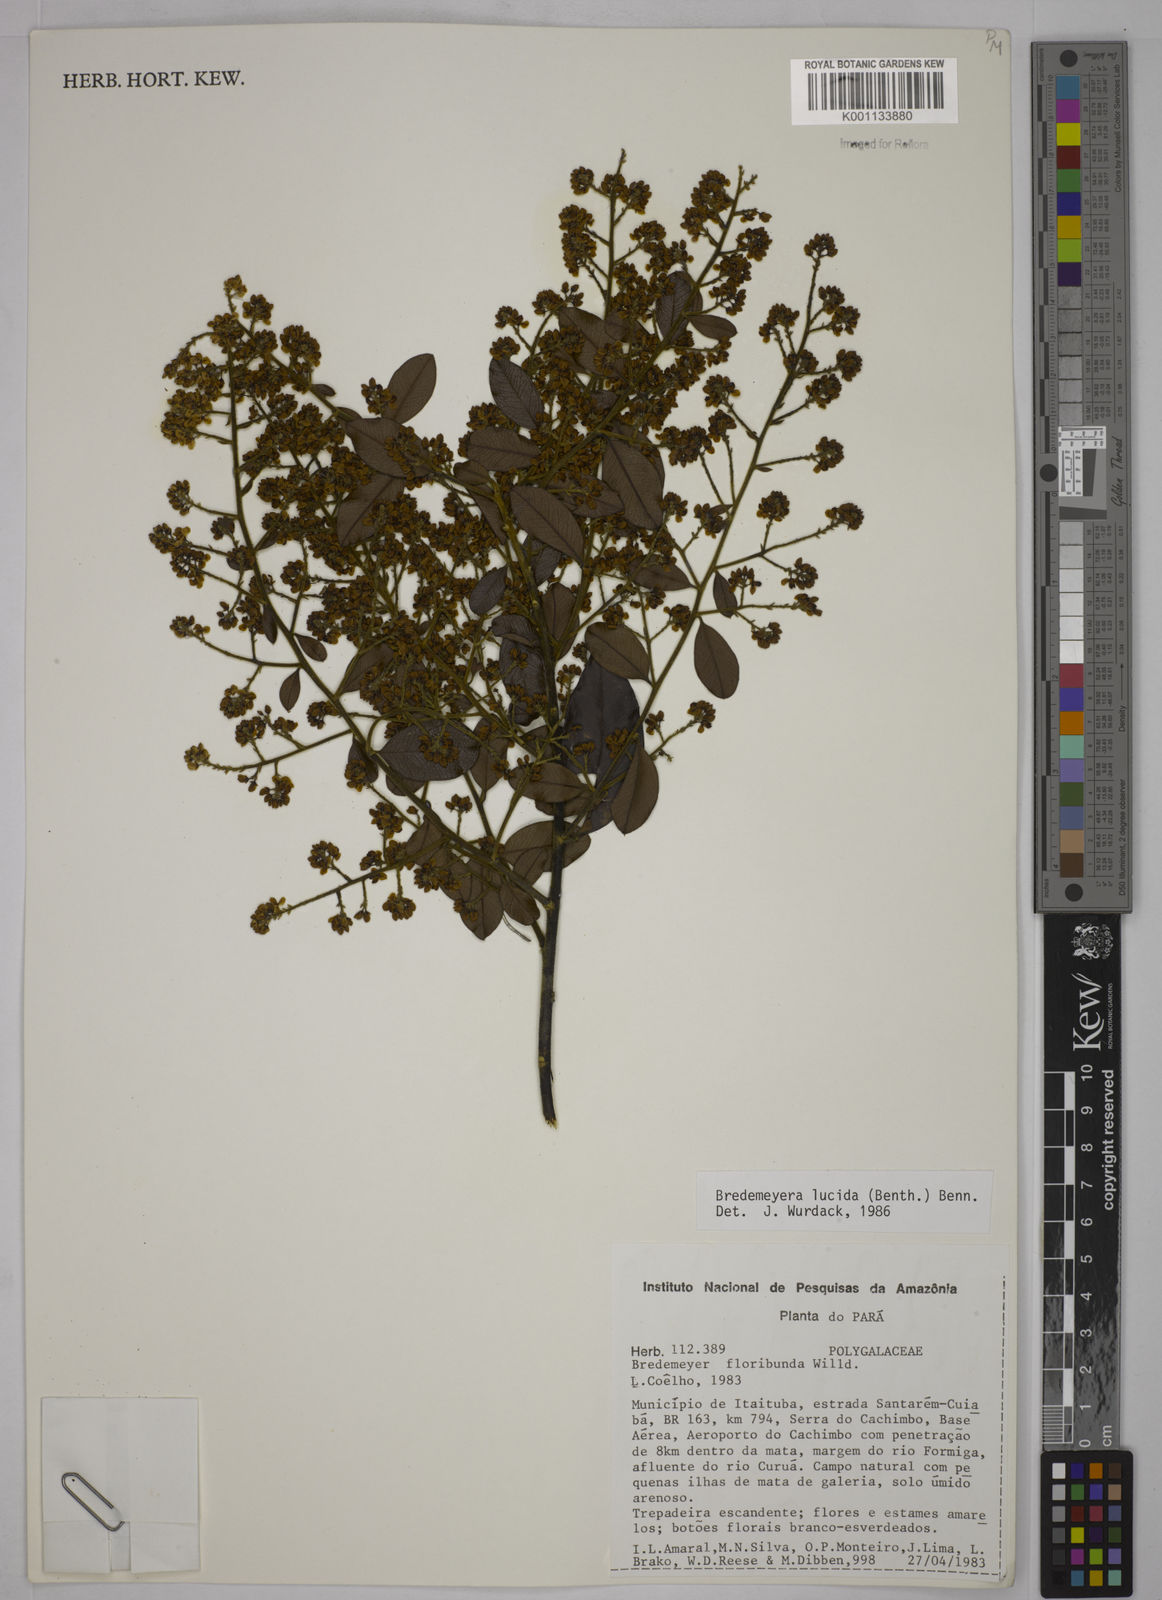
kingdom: Plantae
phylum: Tracheophyta
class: Magnoliopsida
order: Fabales
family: Polygalaceae
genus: Bredemeyera
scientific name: Bredemeyera lucida
